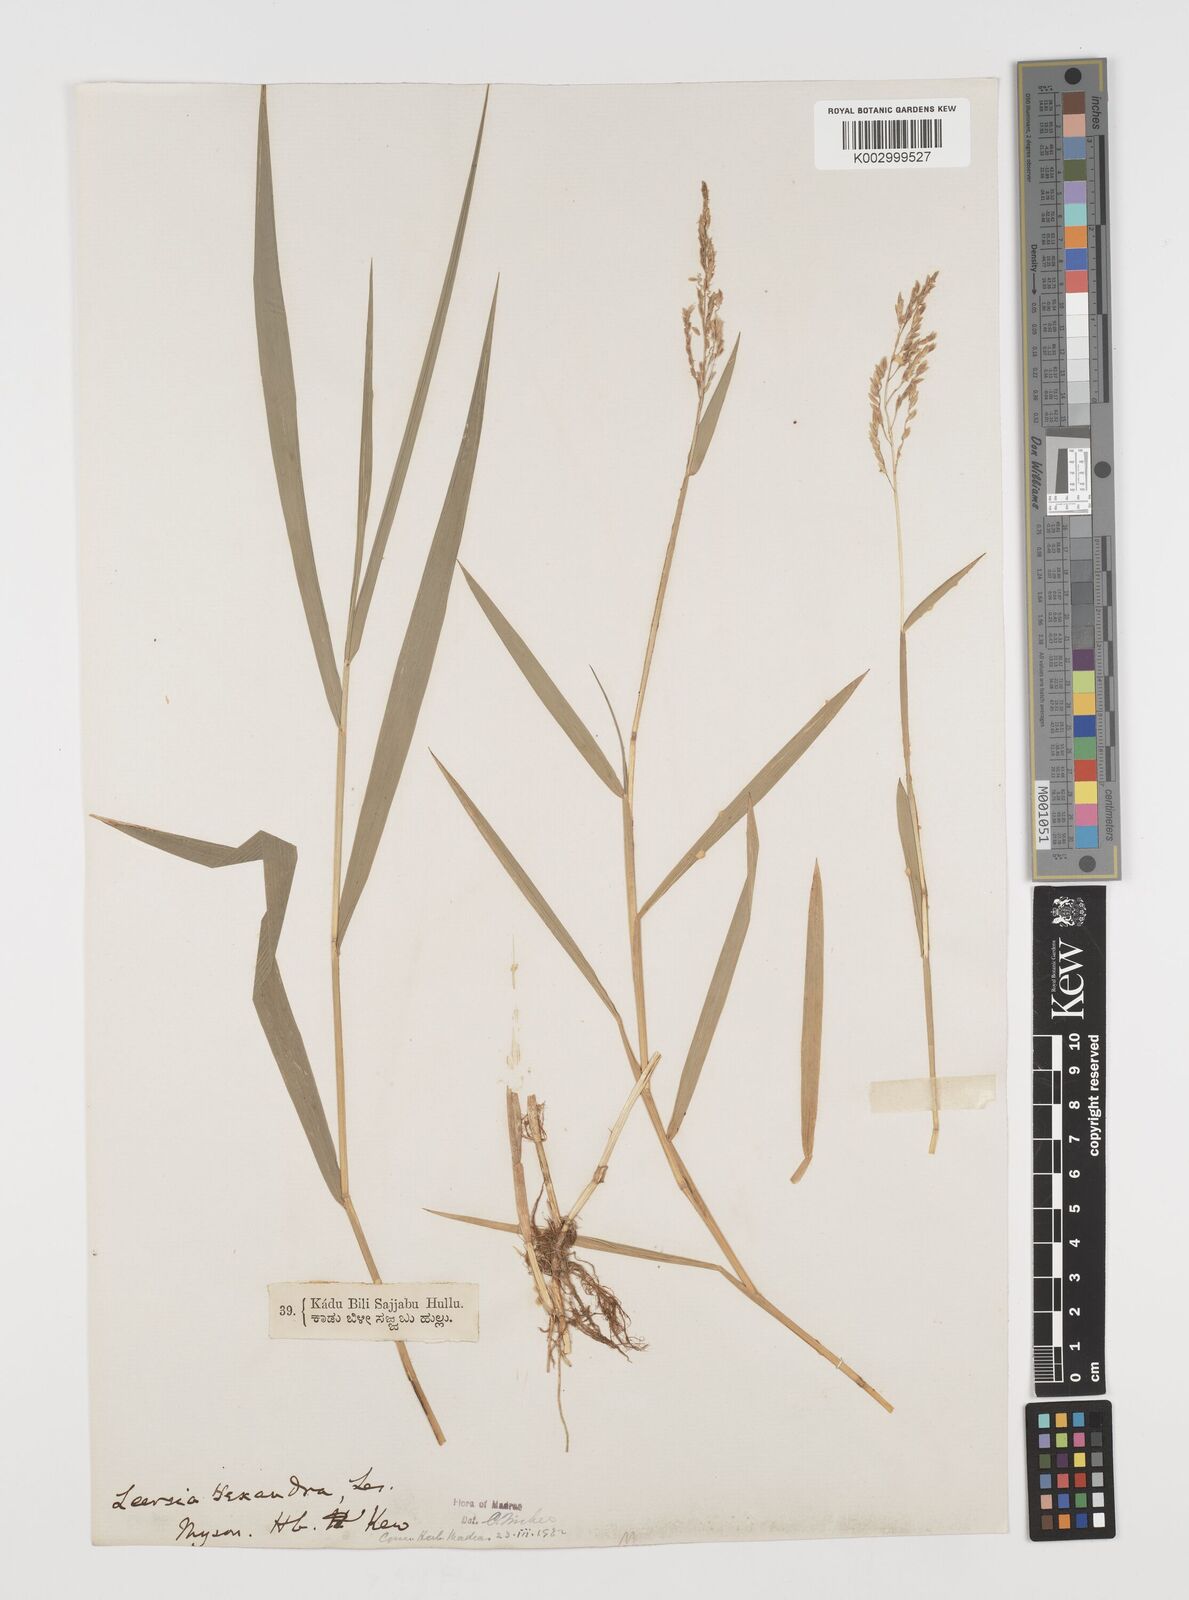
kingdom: Plantae
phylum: Tracheophyta
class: Liliopsida
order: Poales
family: Poaceae
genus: Leersia
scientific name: Leersia hexandra
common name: Southern cut grass
